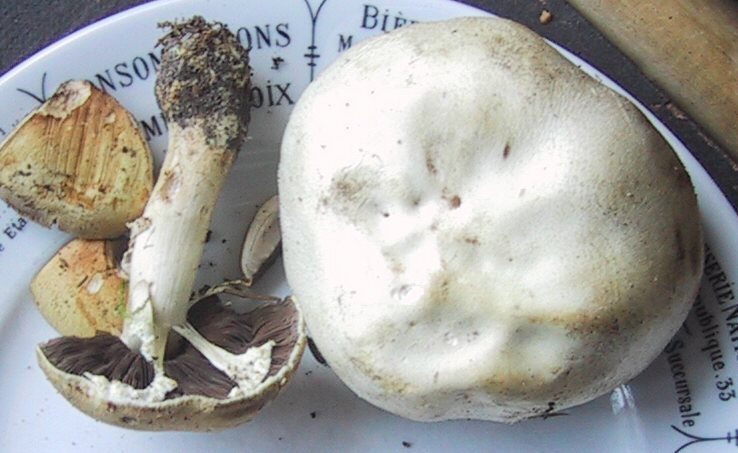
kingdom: Fungi
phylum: Basidiomycota
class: Agaricomycetes
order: Agaricales
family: Agaricaceae
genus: Agaricus
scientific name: Agaricus sylvicola
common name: gulhvid champignon
